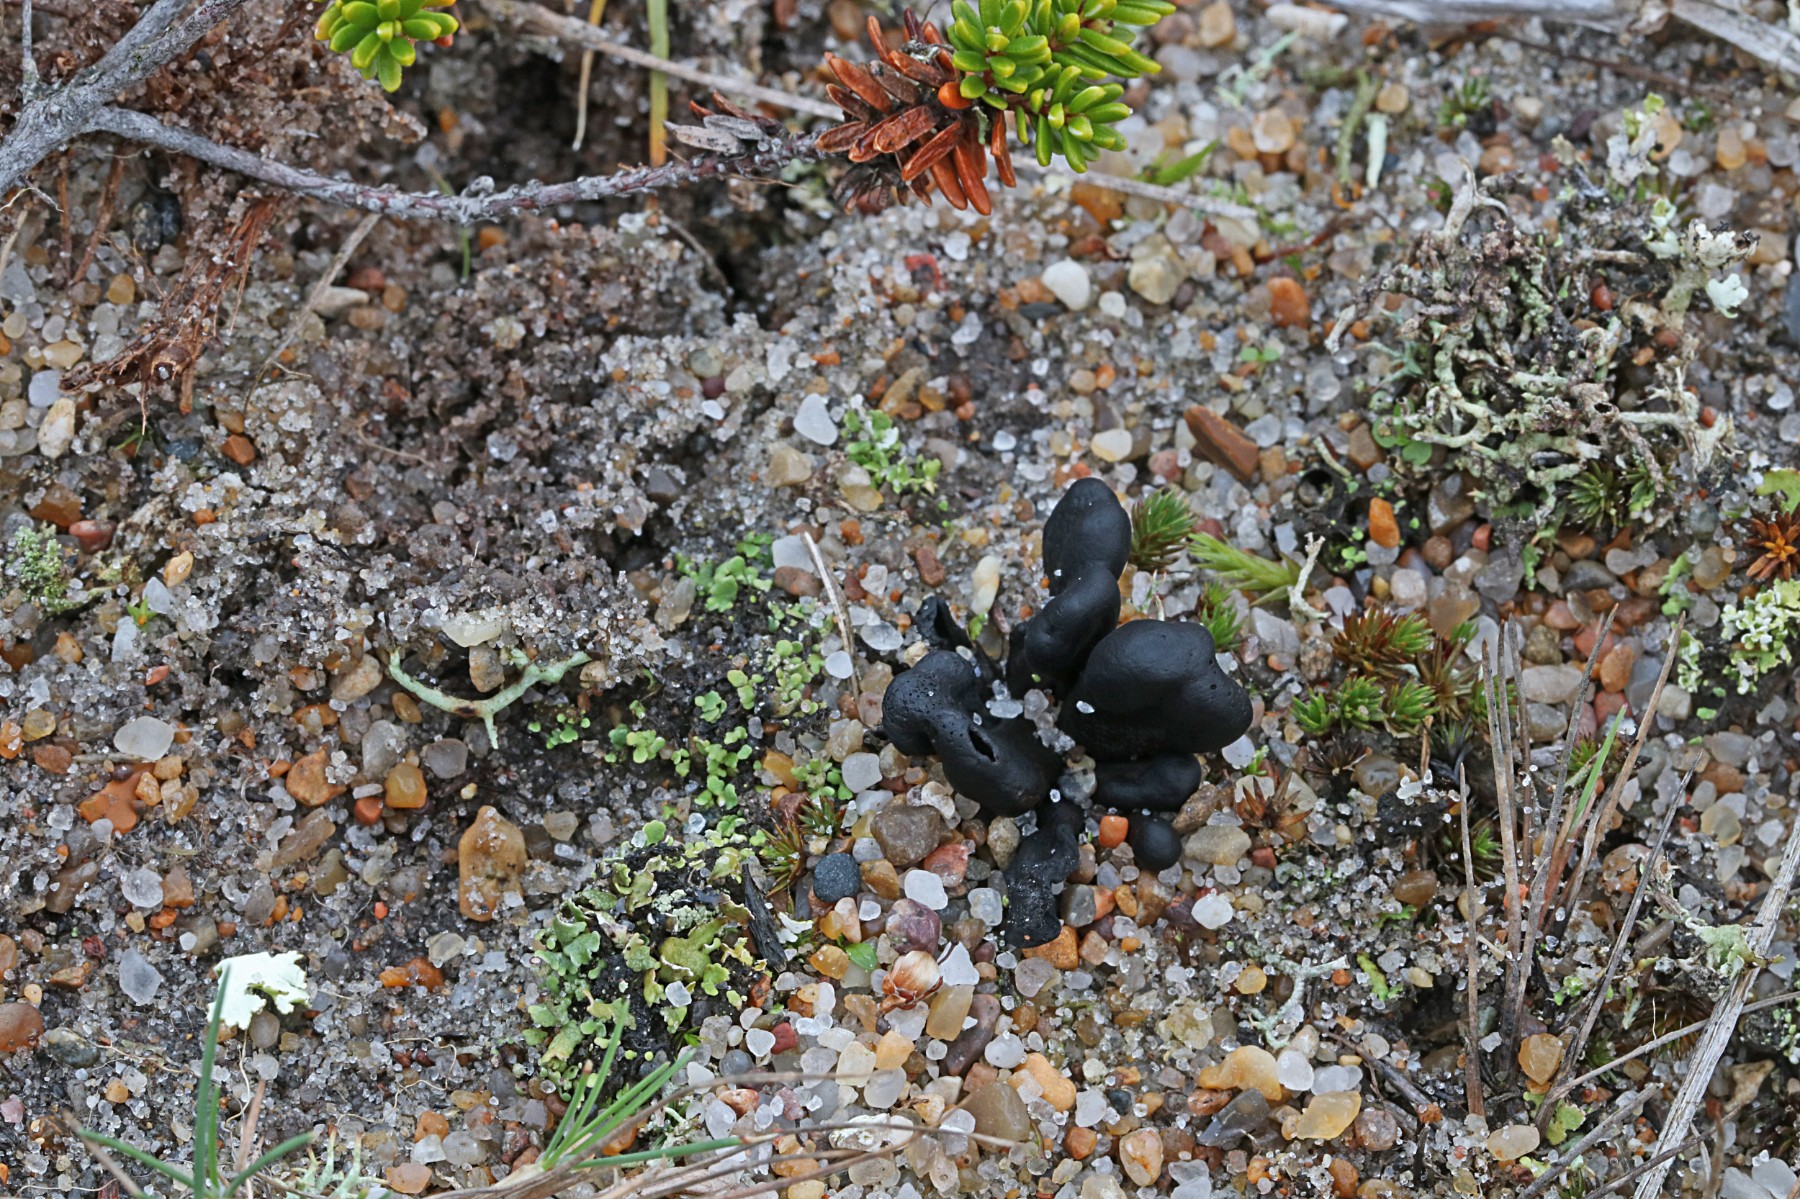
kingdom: Fungi
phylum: Ascomycota
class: Geoglossomycetes
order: Geoglossales
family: Geoglossaceae
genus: Sabuloglossum
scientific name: Sabuloglossum arenarium
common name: klit-jordtunge
